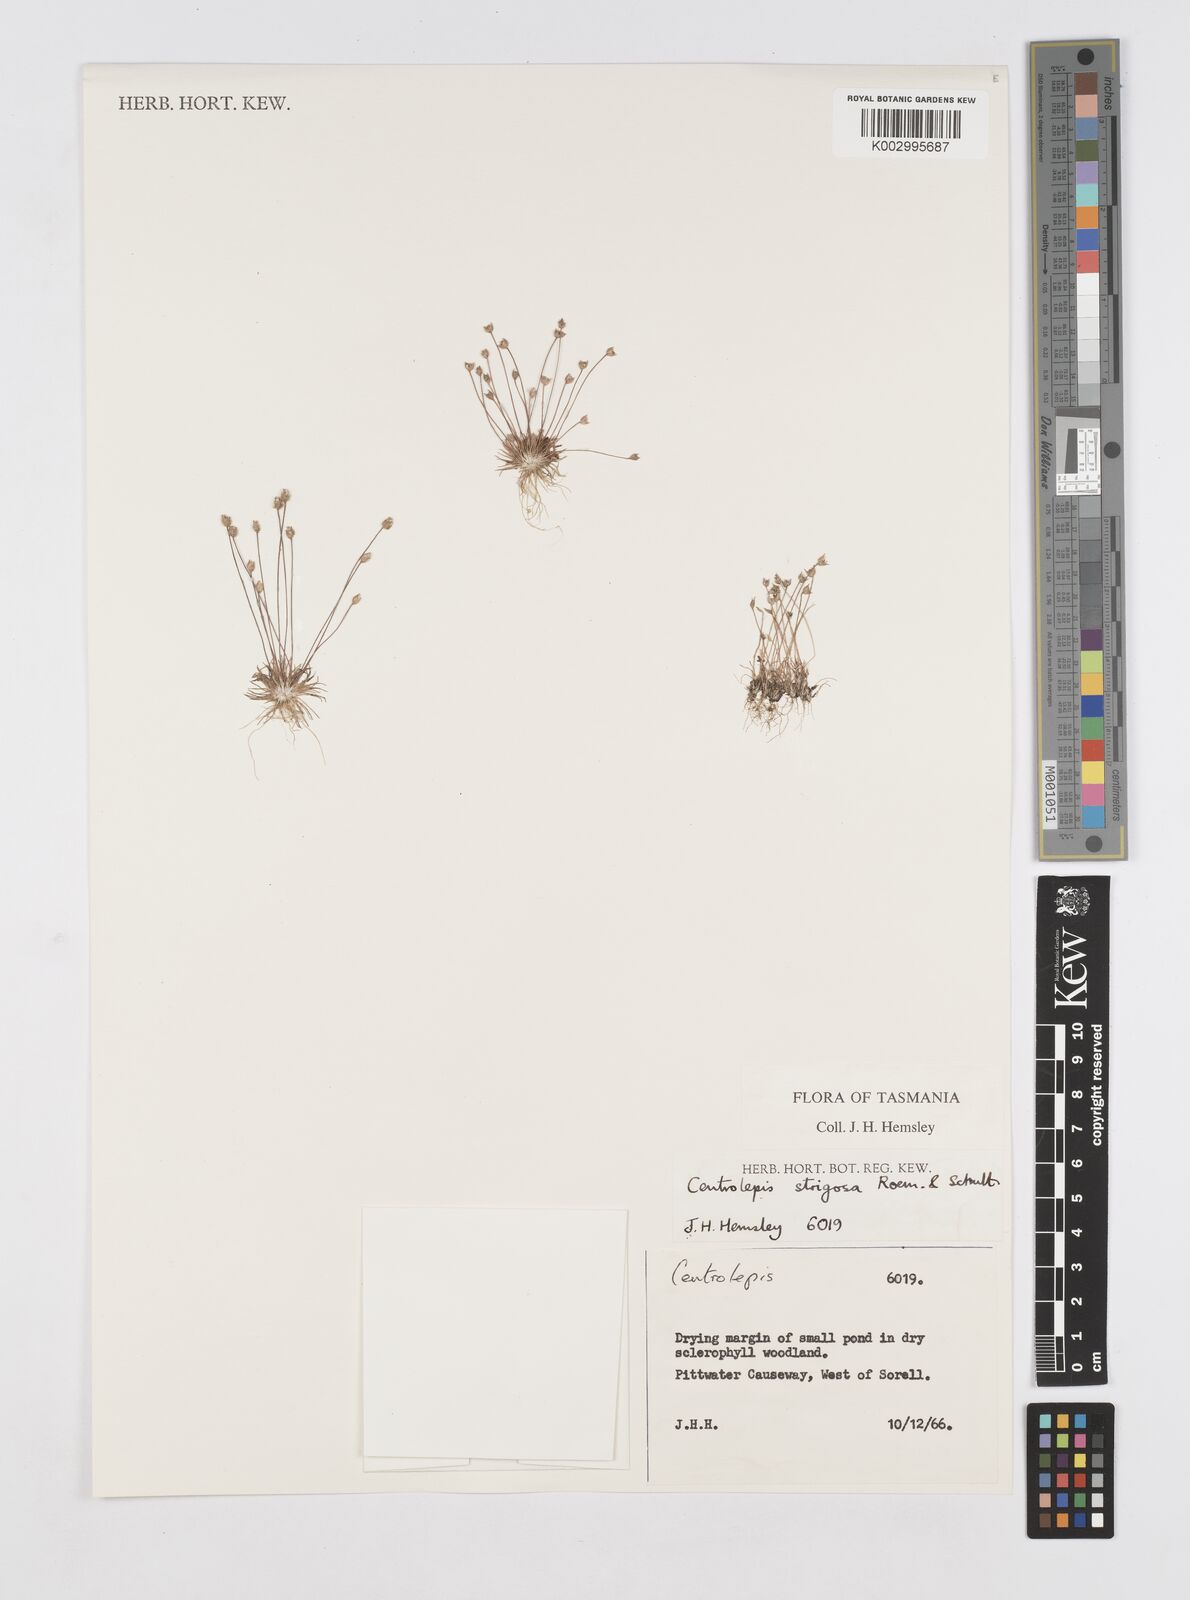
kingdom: Plantae
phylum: Tracheophyta
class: Liliopsida
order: Poales
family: Restionaceae
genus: Centrolepis
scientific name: Centrolepis strigosa
